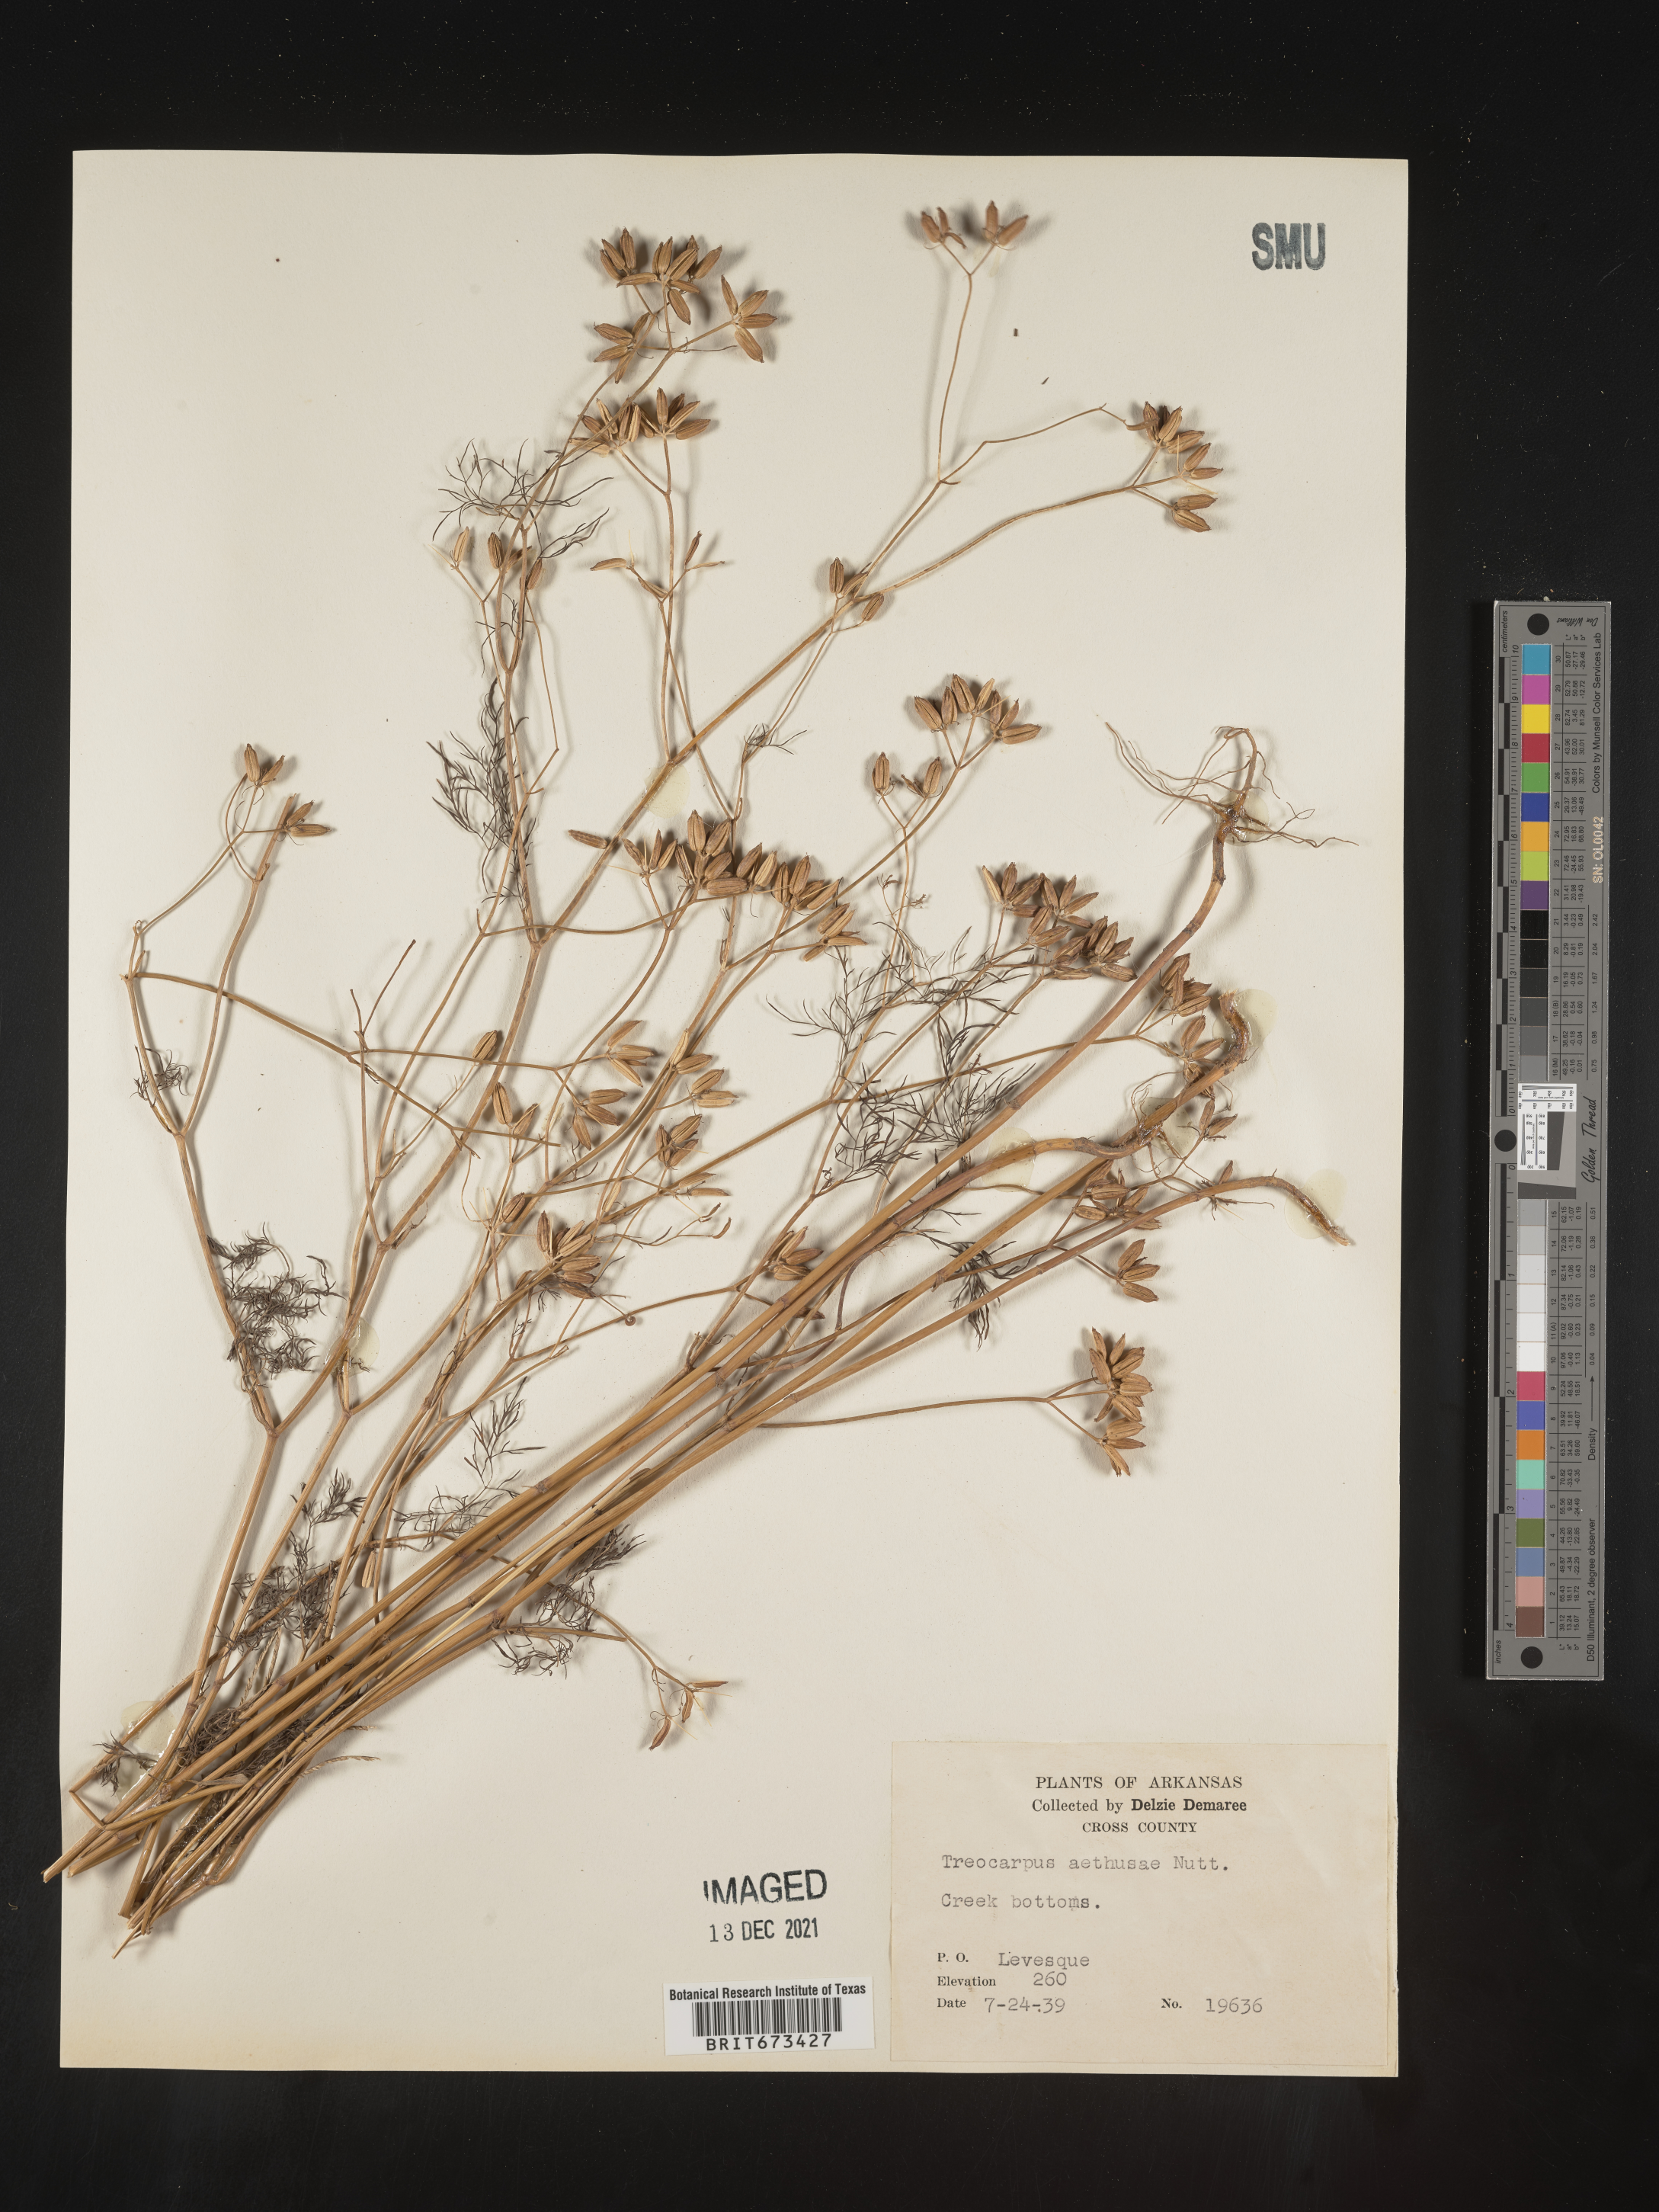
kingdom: Plantae
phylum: Tracheophyta
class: Magnoliopsida
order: Apiales
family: Apiaceae
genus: Trepocarpus
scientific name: Trepocarpus aethusae
